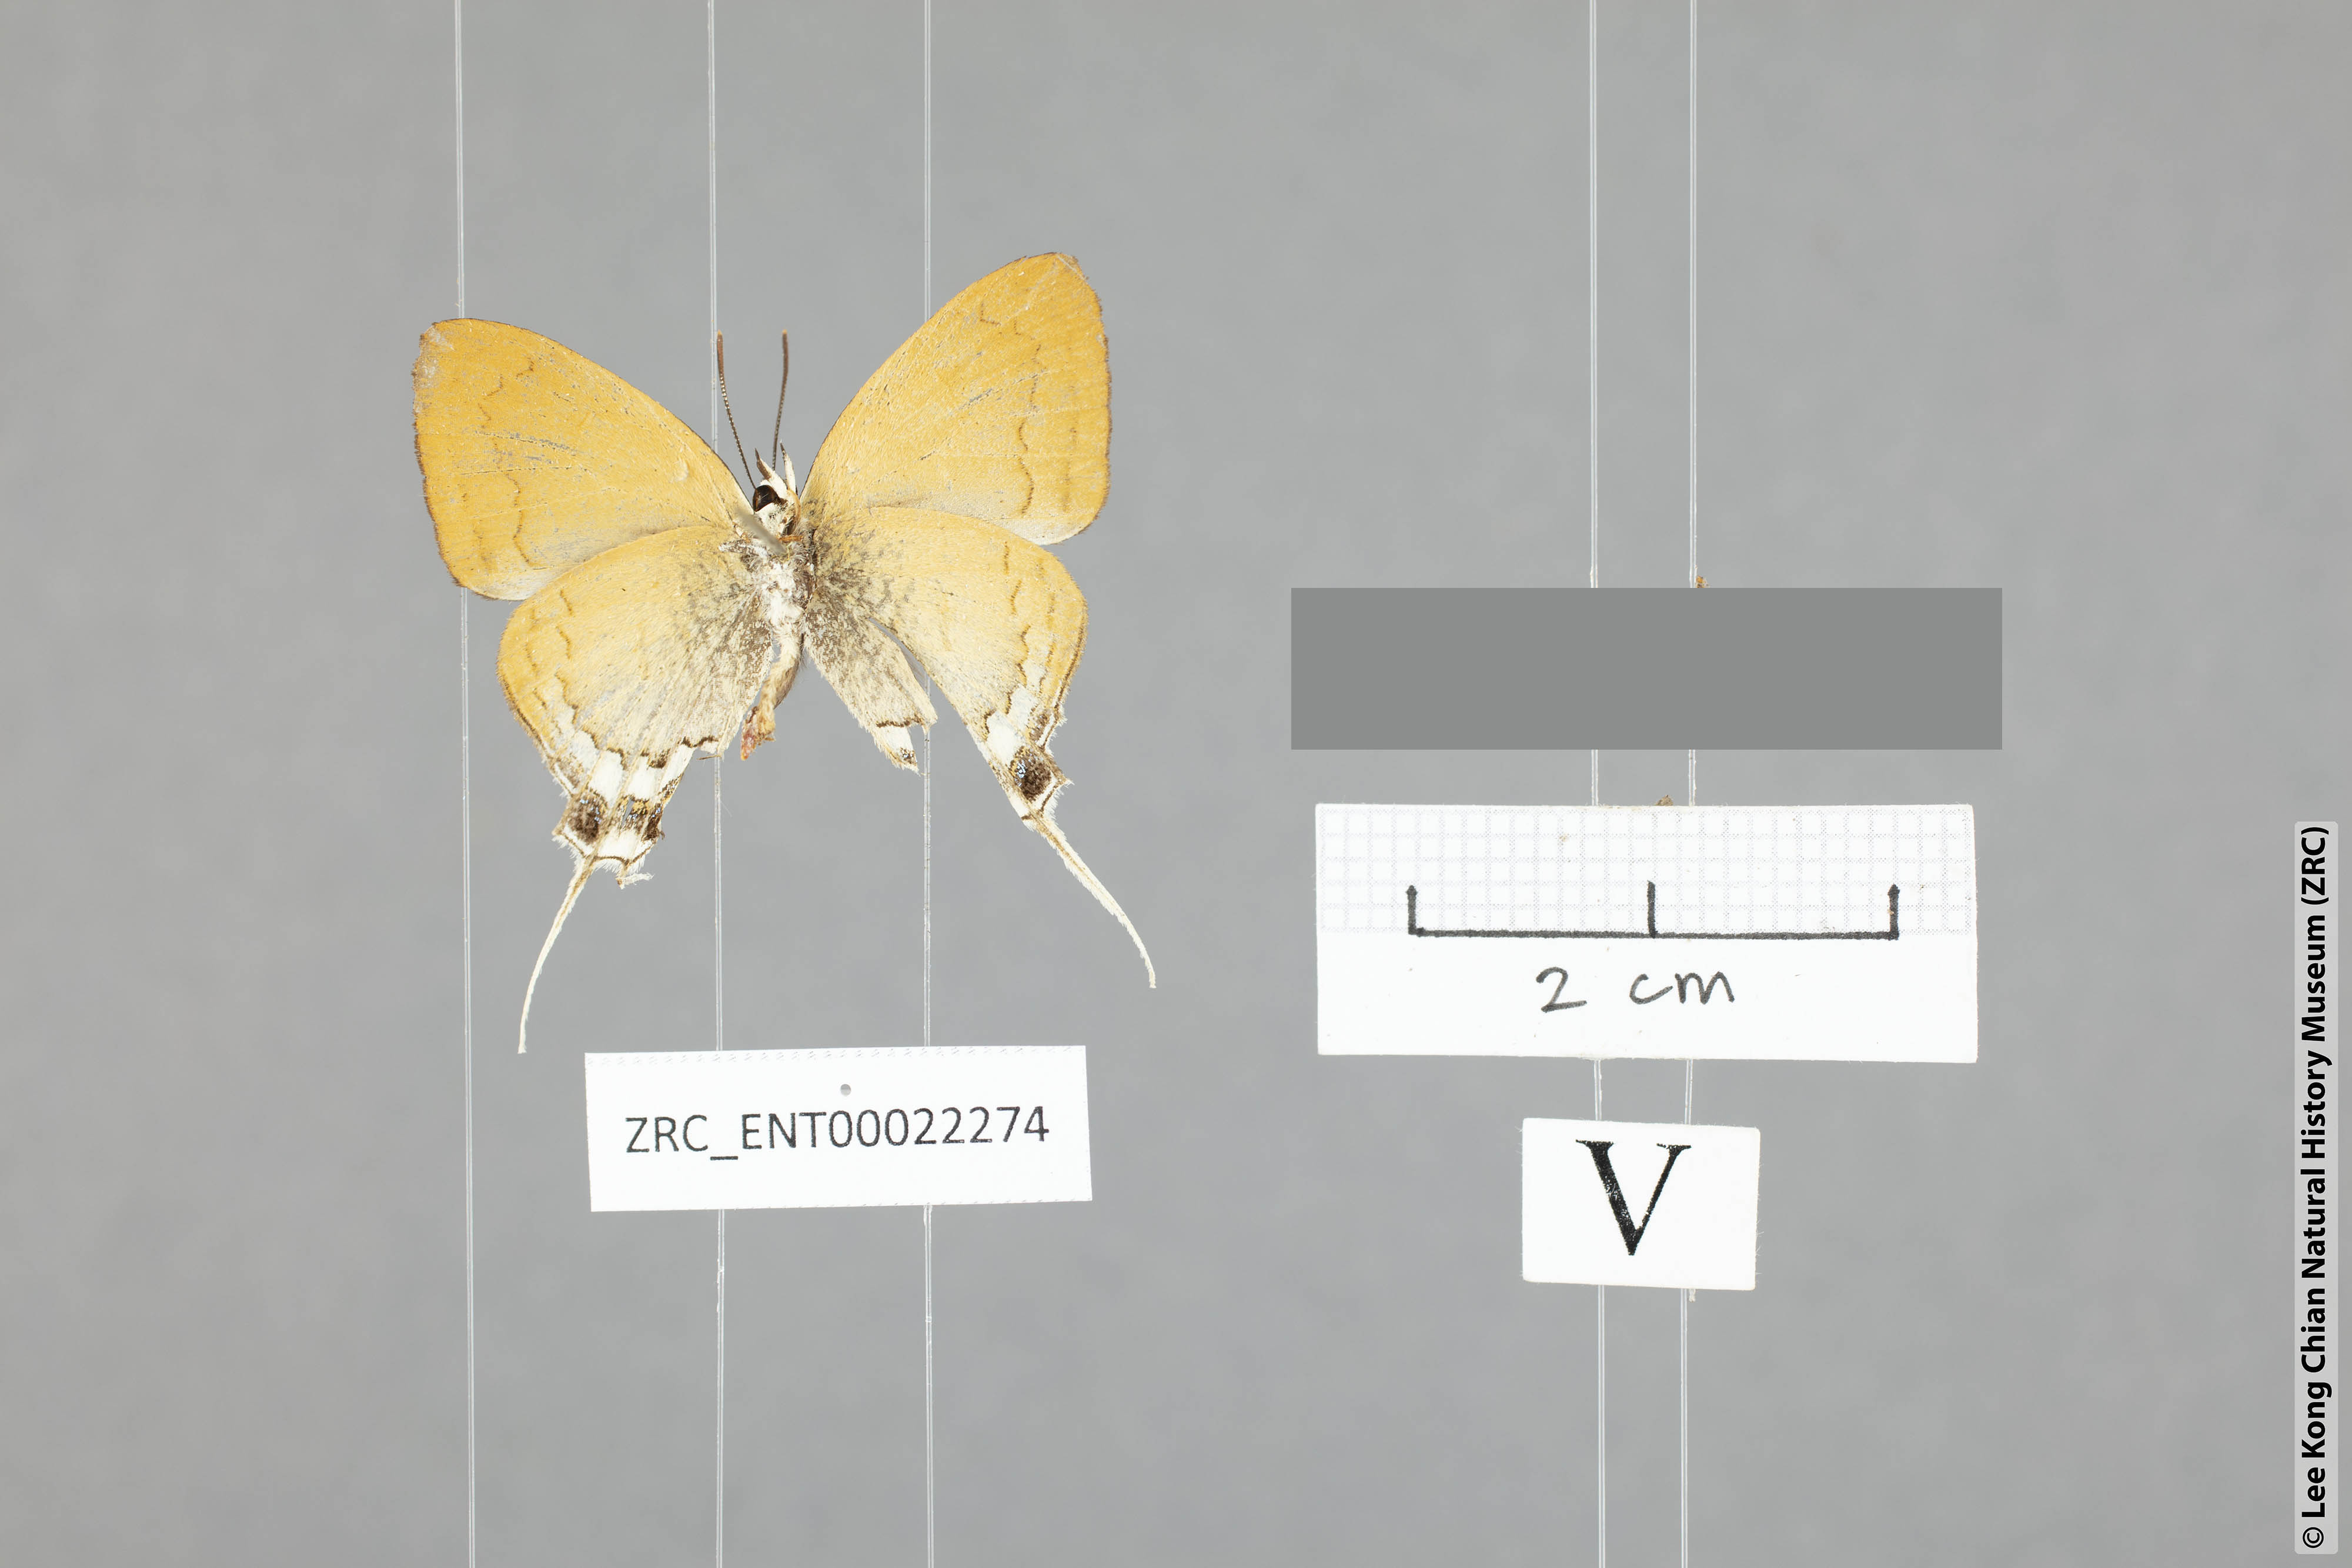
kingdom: Animalia
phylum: Arthropoda
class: Insecta
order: Lepidoptera
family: Lycaenidae
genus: Ticherra
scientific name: Ticherra acte
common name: Blue imperial
